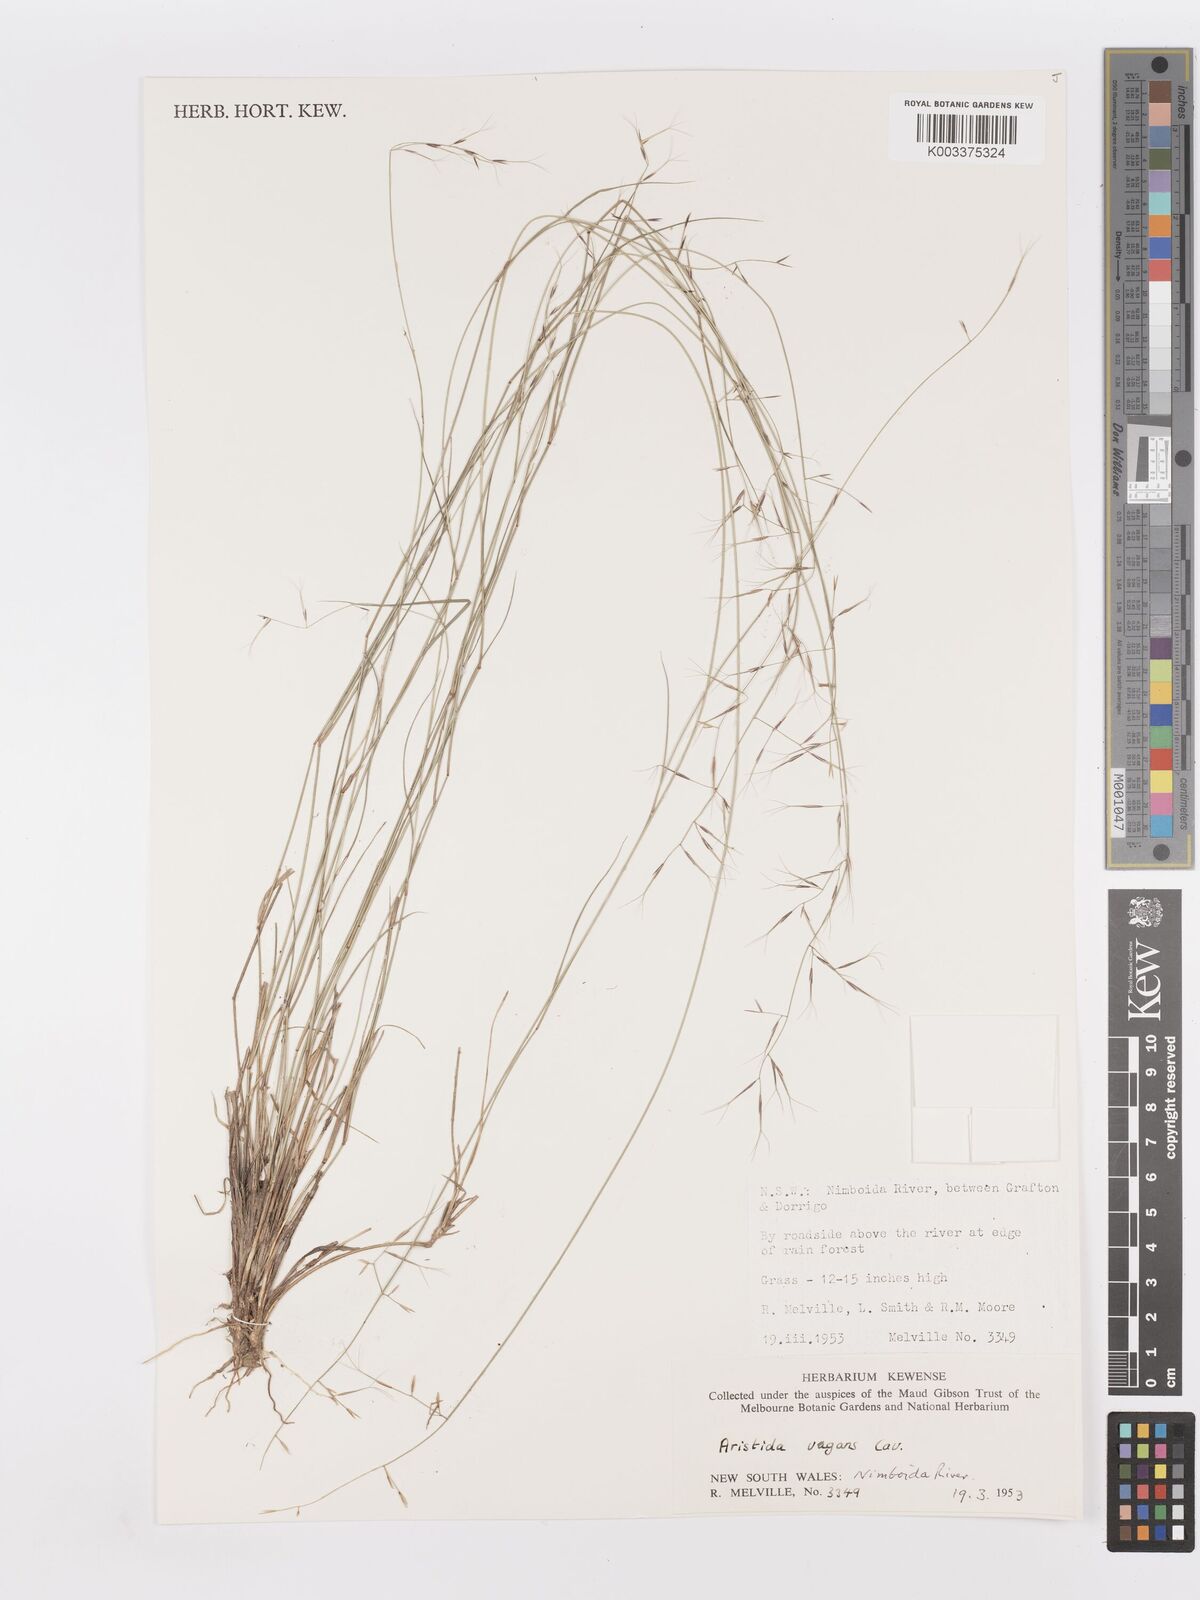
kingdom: Plantae
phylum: Tracheophyta
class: Liliopsida
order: Poales
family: Poaceae
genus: Aristida
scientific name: Aristida vagans
